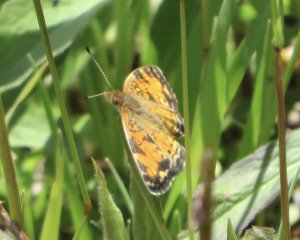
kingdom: Animalia
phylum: Arthropoda
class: Insecta
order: Lepidoptera
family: Nymphalidae
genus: Phyciodes
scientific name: Phyciodes
